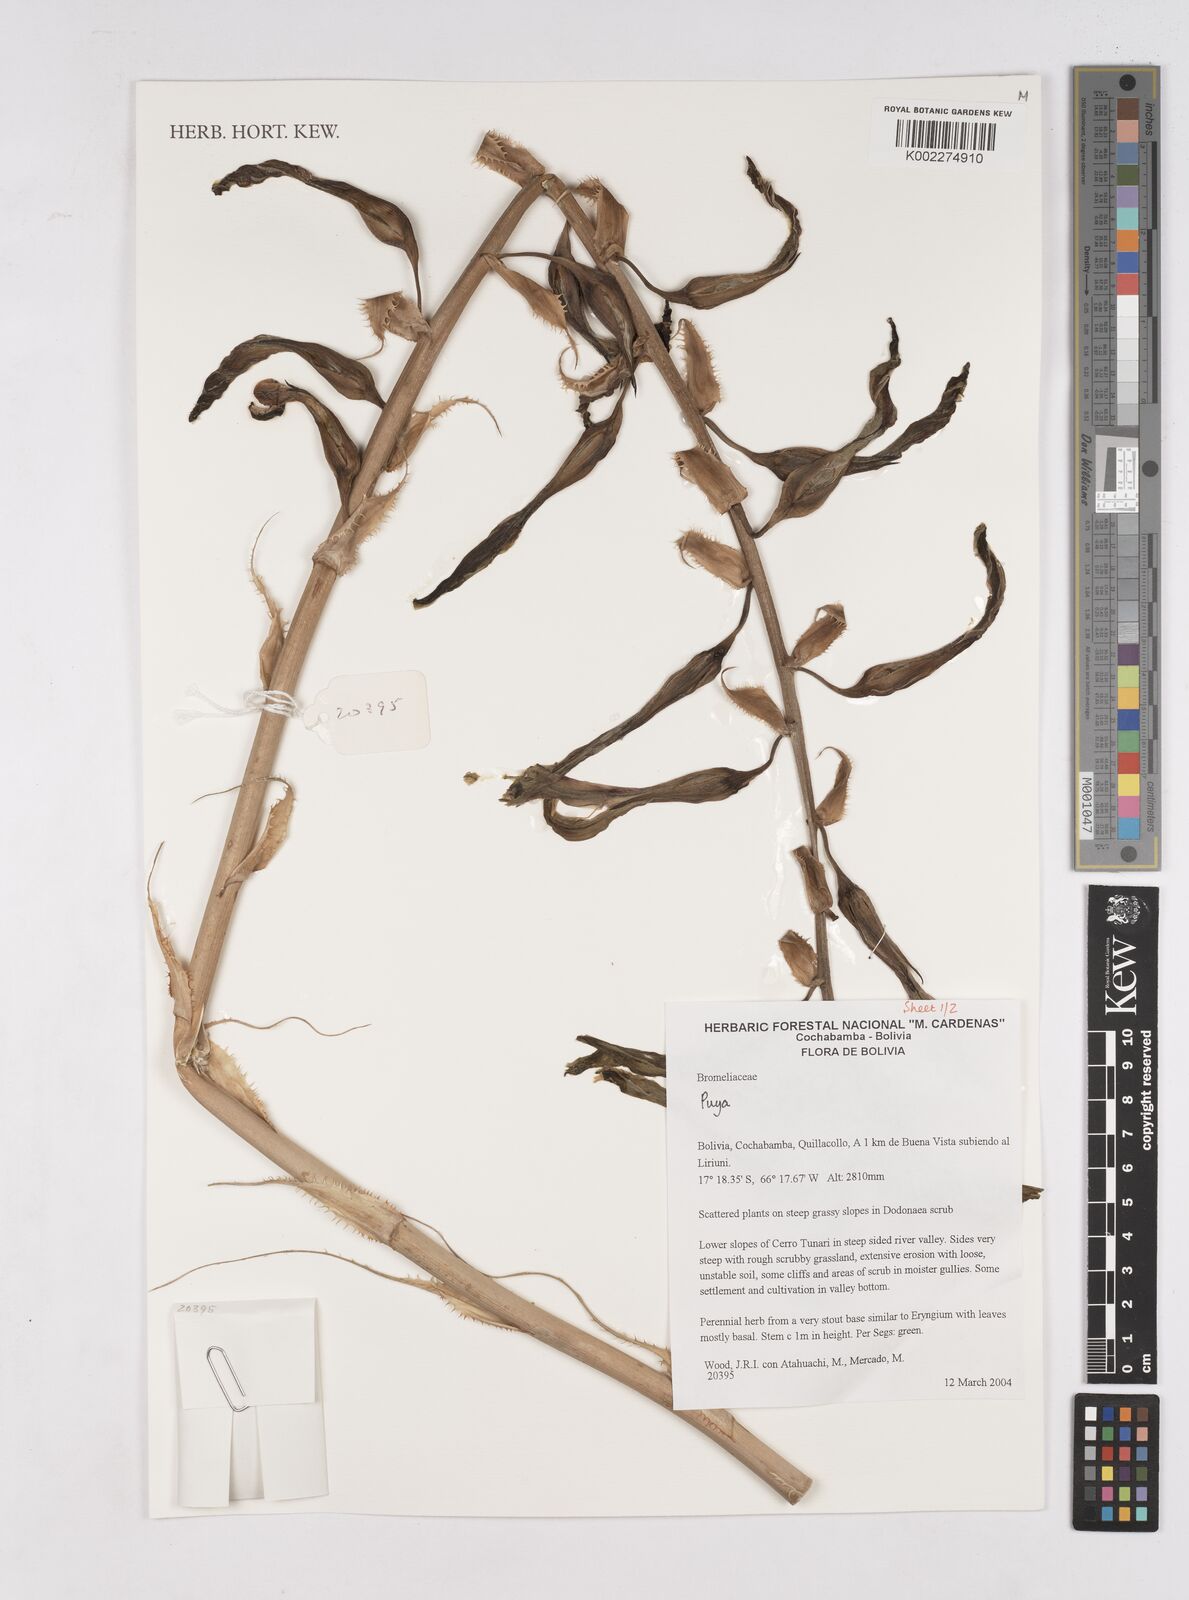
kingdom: Plantae
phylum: Tracheophyta
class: Liliopsida
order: Poales
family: Bromeliaceae
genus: Puya
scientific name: Puya
